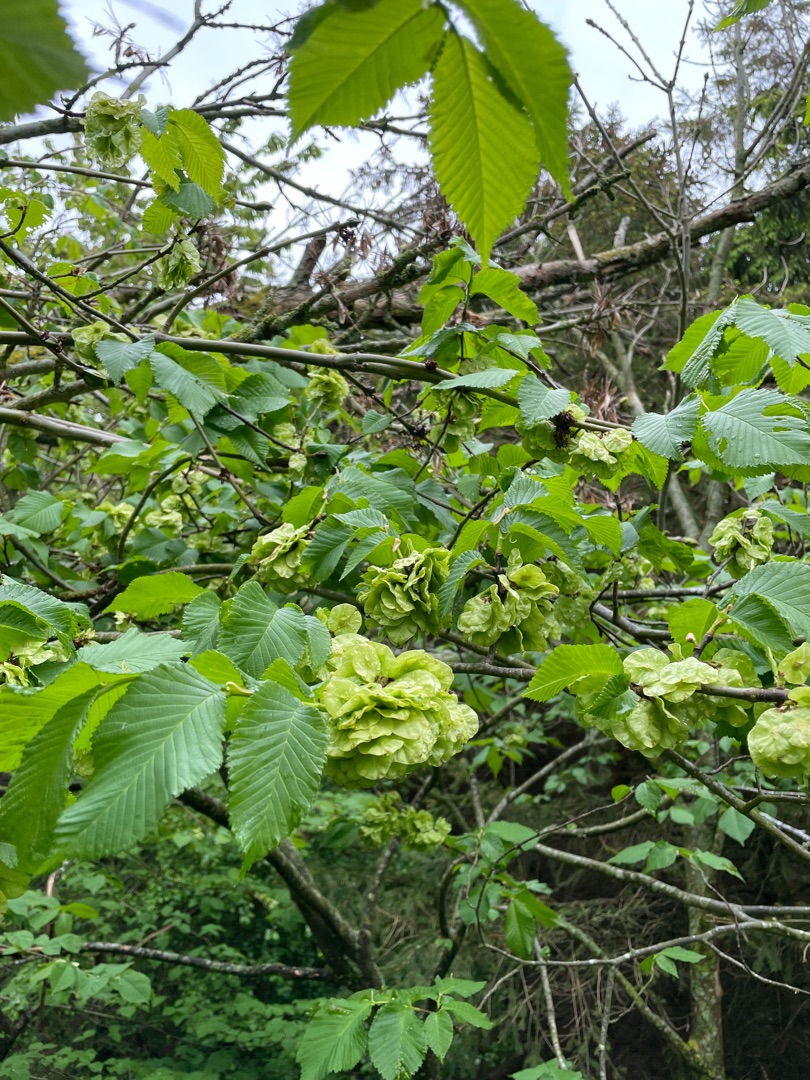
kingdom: Plantae
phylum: Tracheophyta
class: Magnoliopsida
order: Rosales
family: Ulmaceae
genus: Ulmus
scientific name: Ulmus glabra
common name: Skov-elm/storbladet elm
